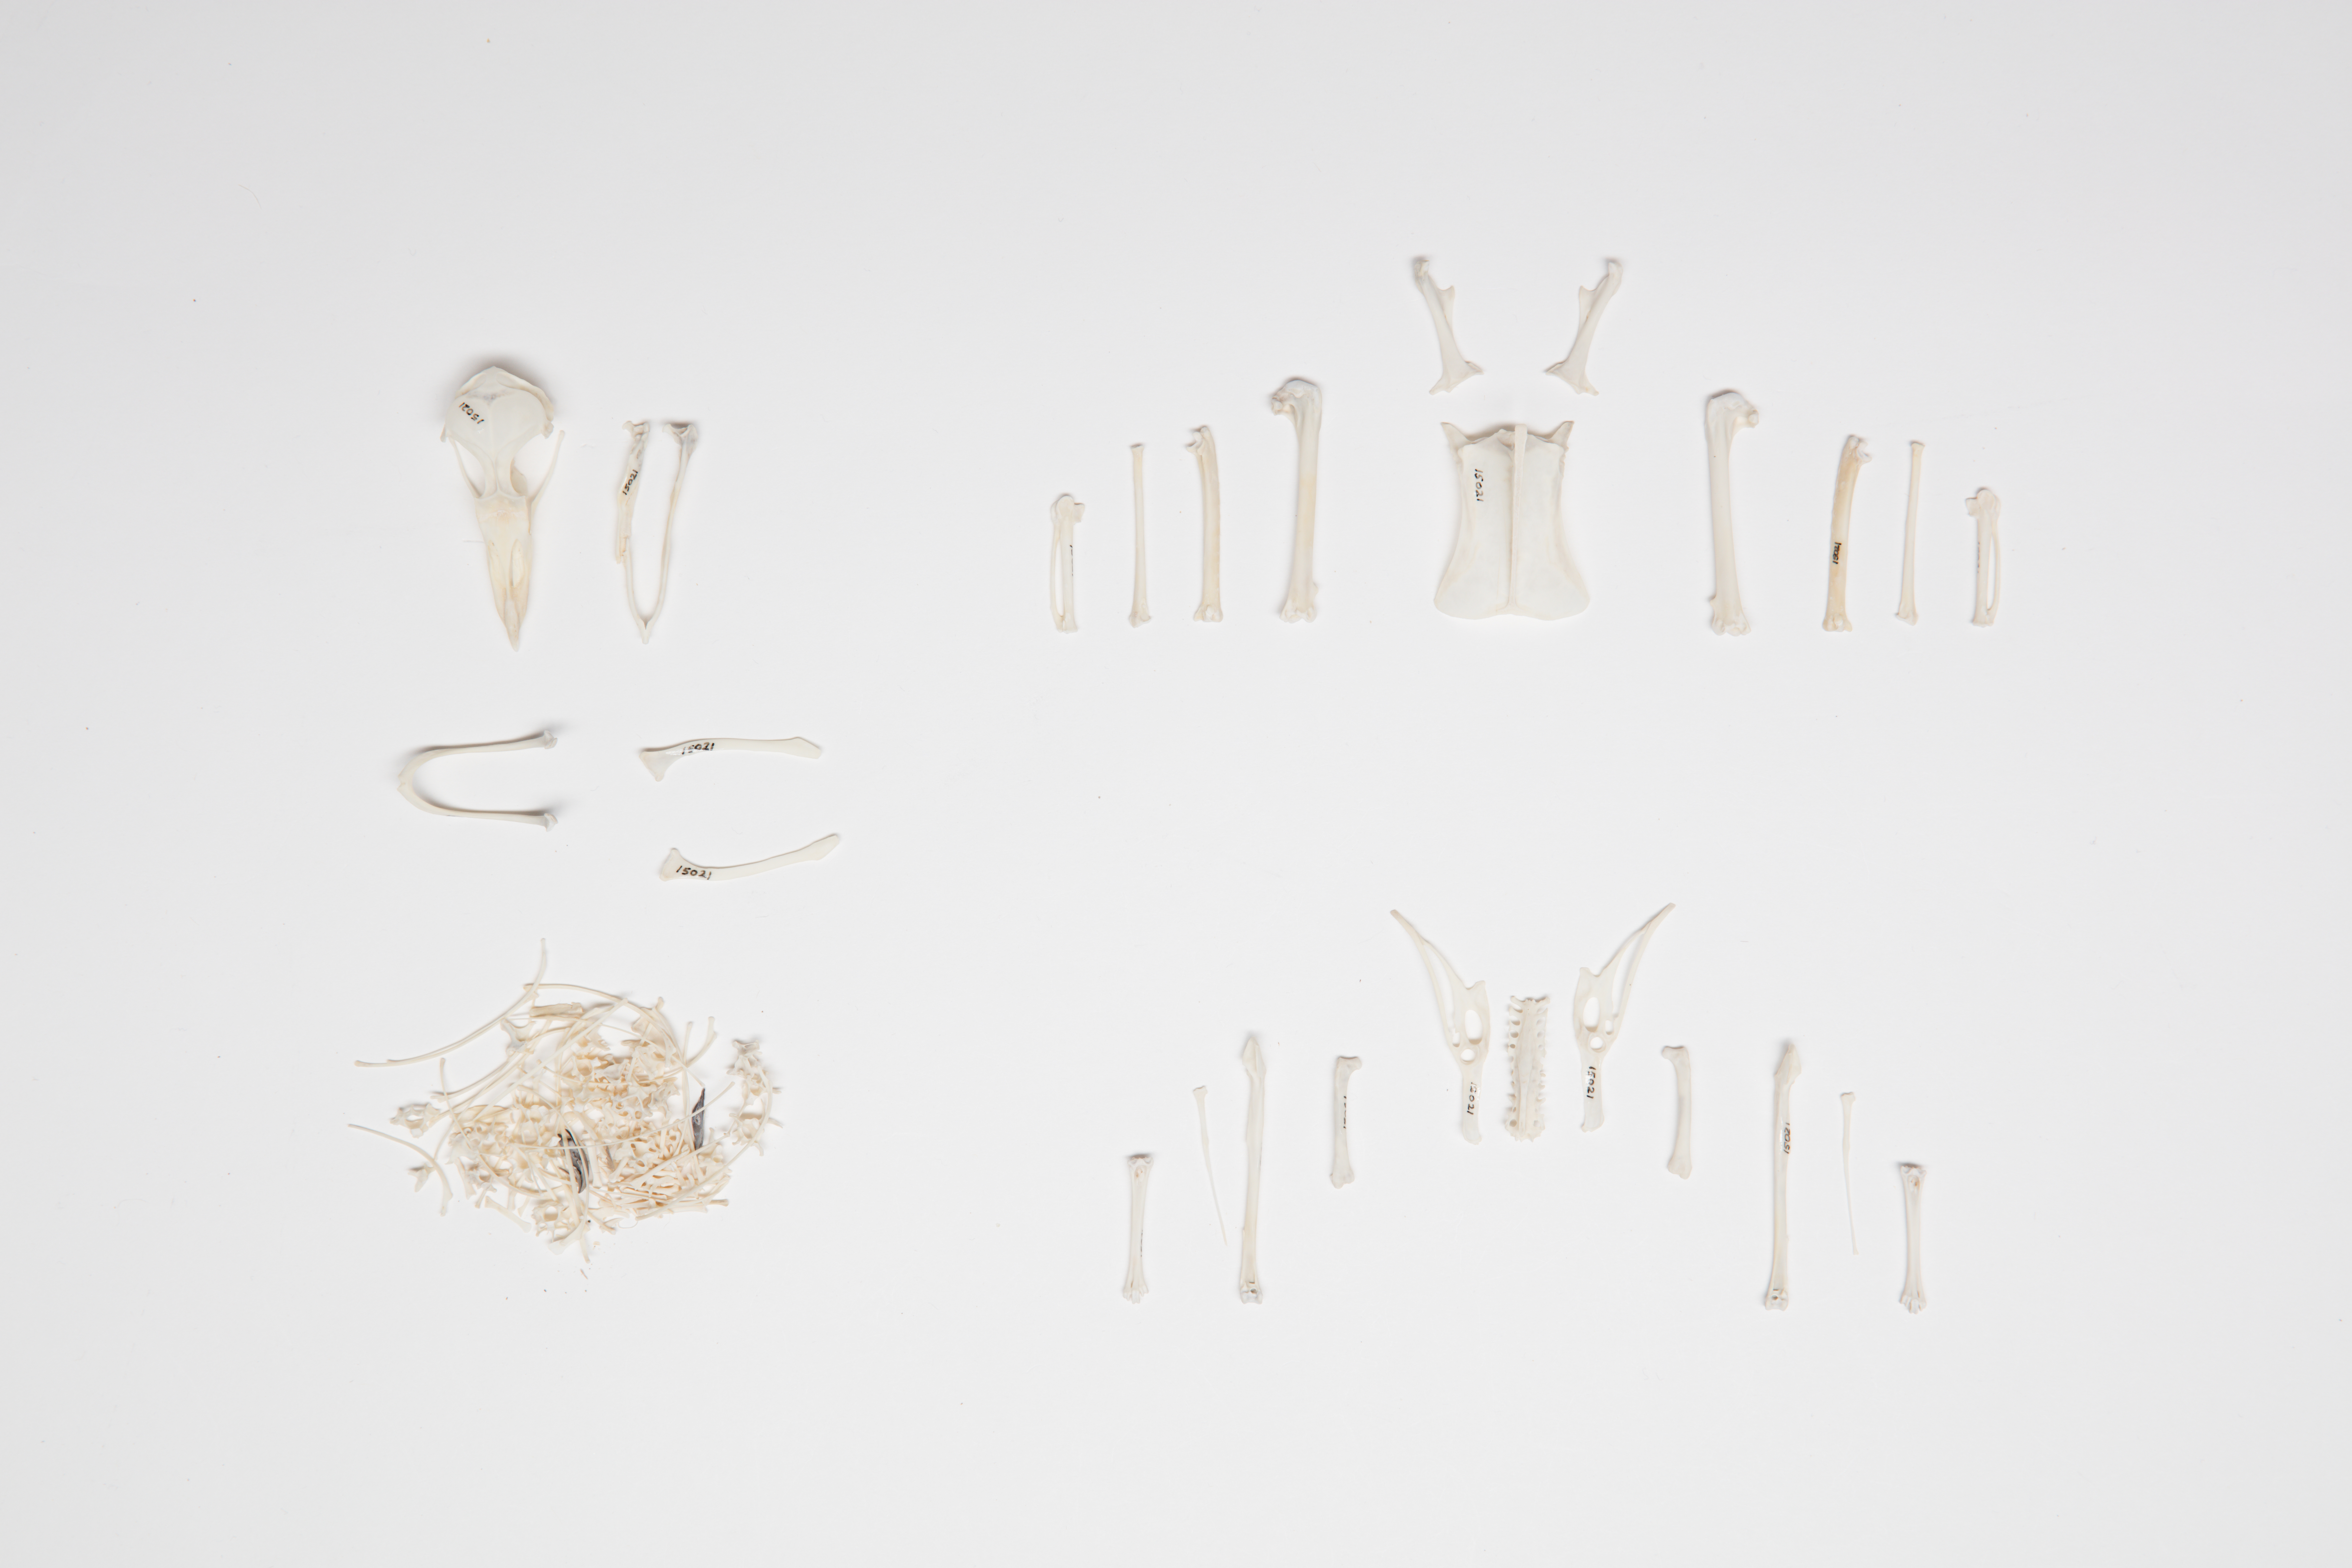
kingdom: Animalia
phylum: Chordata
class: Aves
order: Procellariiformes
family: Pelecanoididae
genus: Pelecanoides
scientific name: Pelecanoides urinatrix
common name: Common diving-petrel
